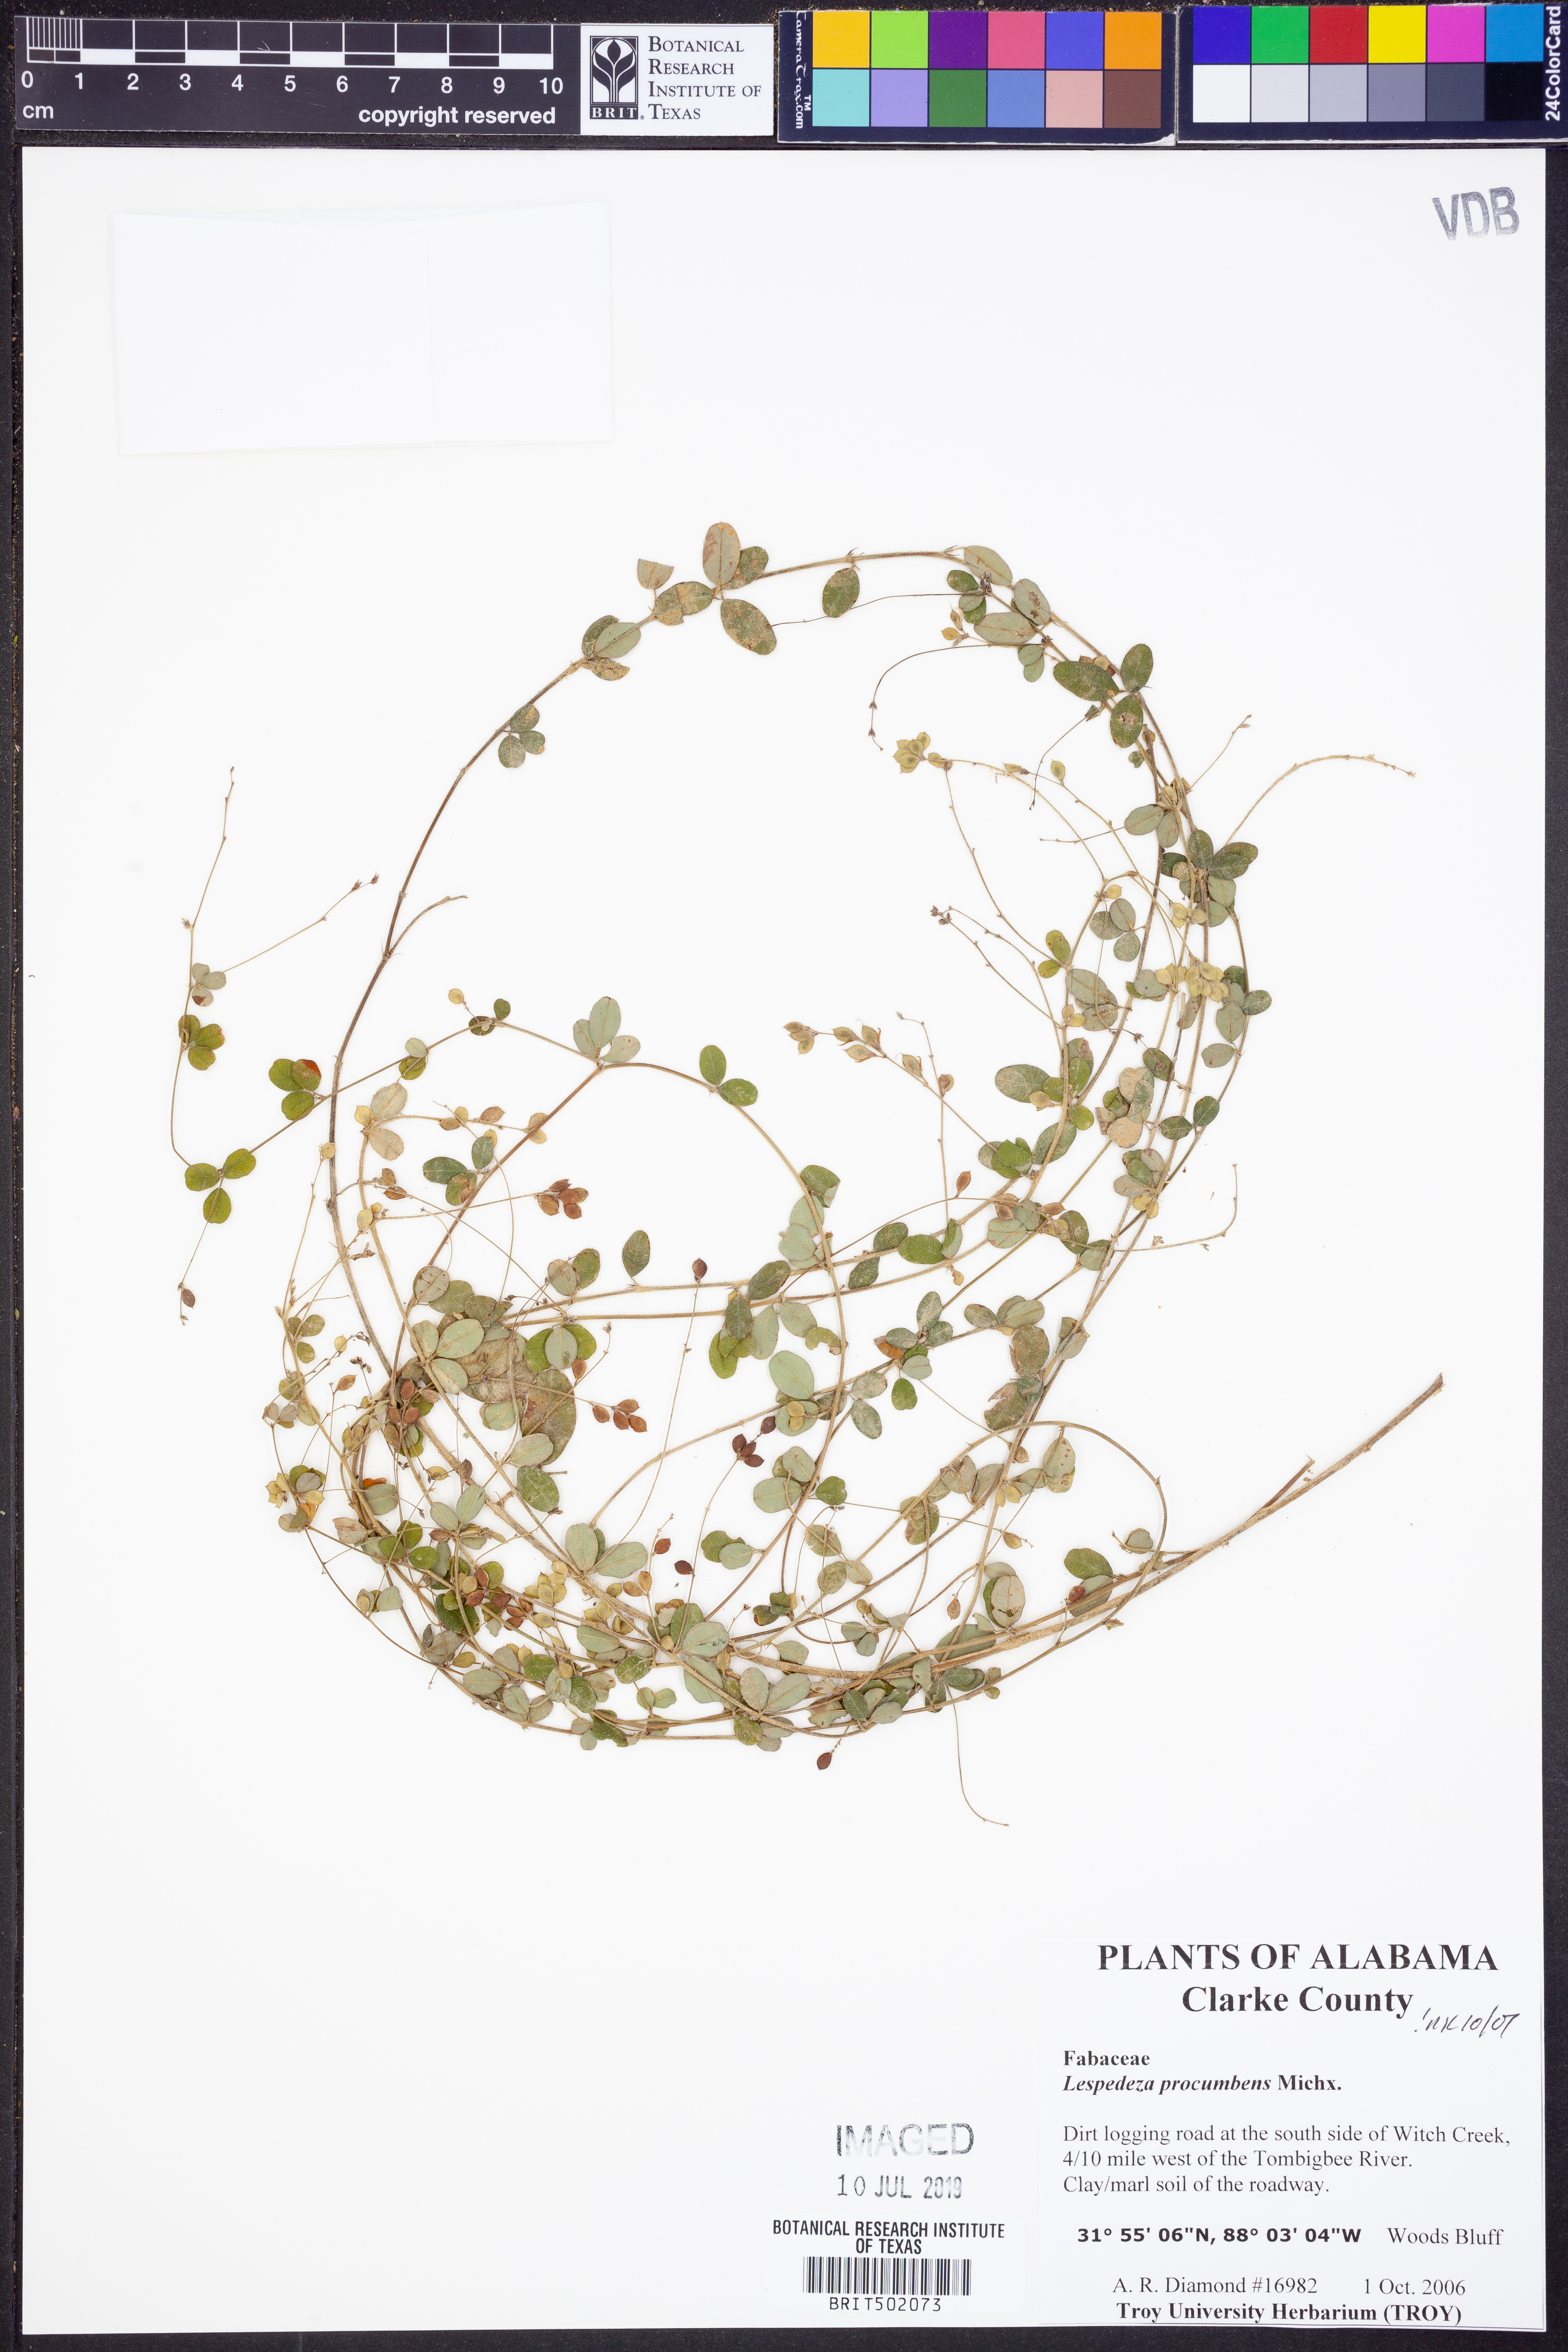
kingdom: Plantae
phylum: Tracheophyta
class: Magnoliopsida
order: Fabales
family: Fabaceae
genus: Lespedeza
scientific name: Lespedeza procumbens
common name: Downy trailing bush-clover
